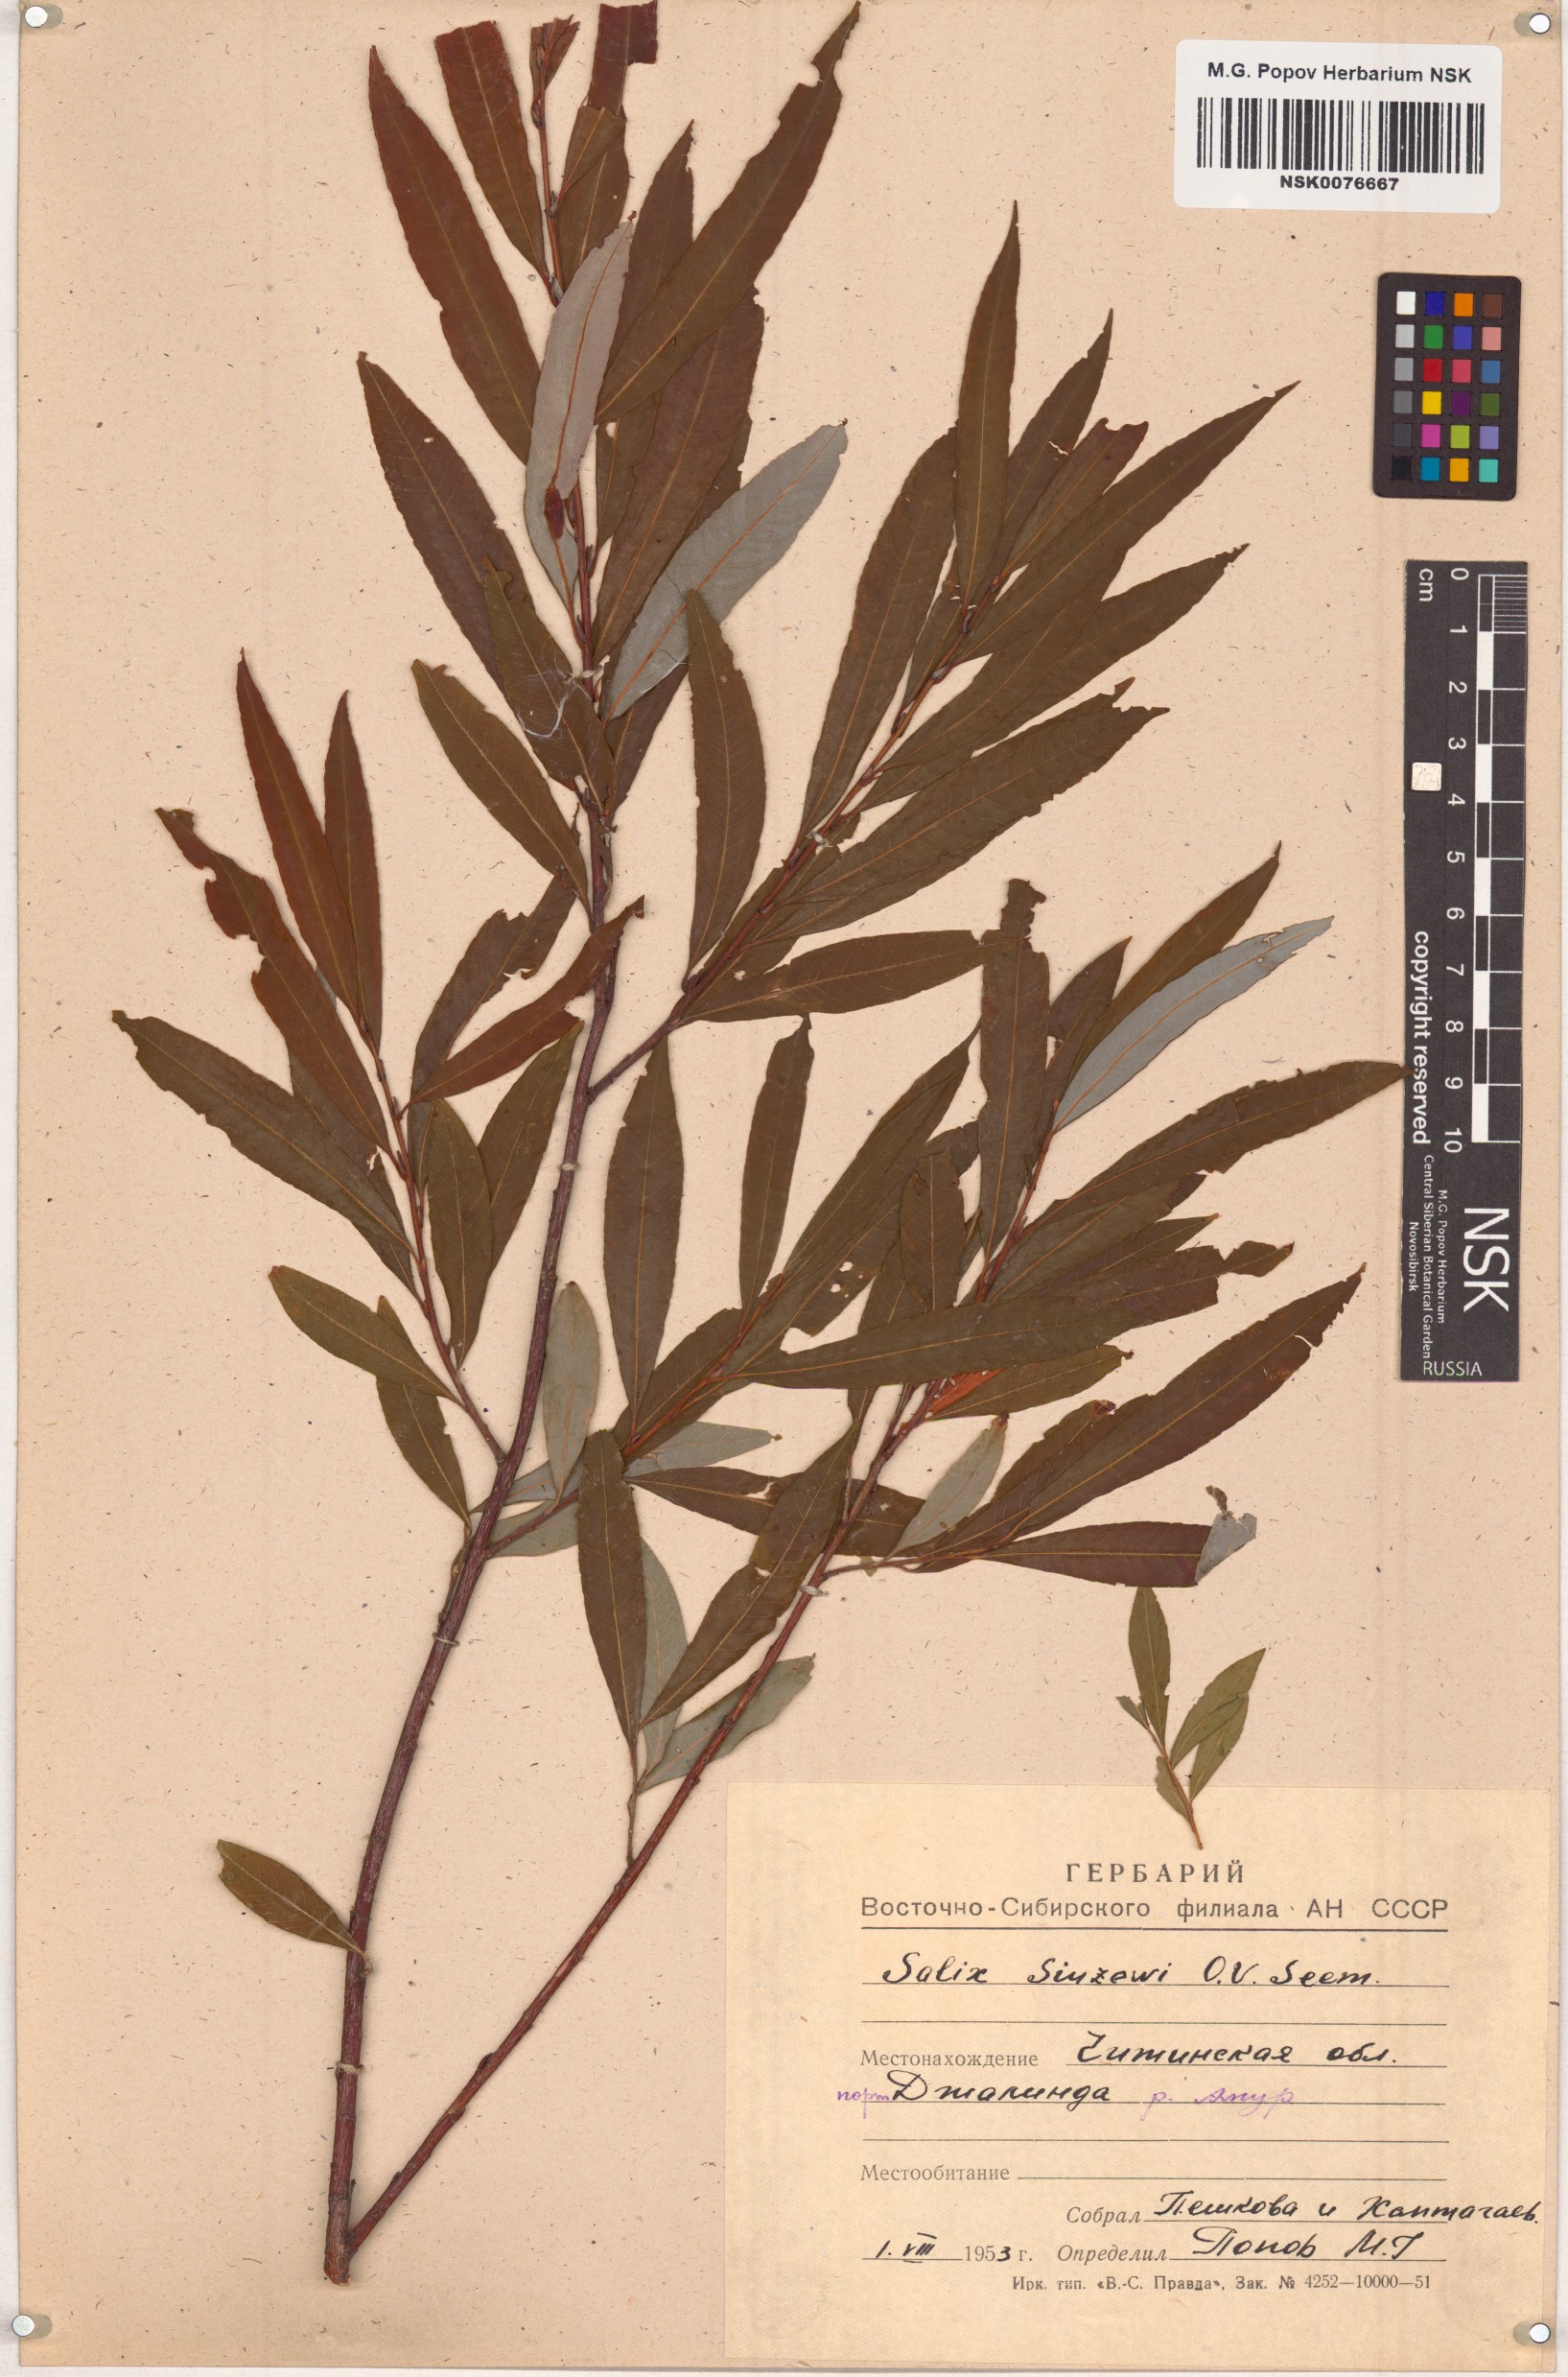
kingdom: Plantae
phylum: Tracheophyta
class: Magnoliopsida
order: Malpighiales
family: Salicaceae
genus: Salix
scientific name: Salix udensis
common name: Sachalin willow
